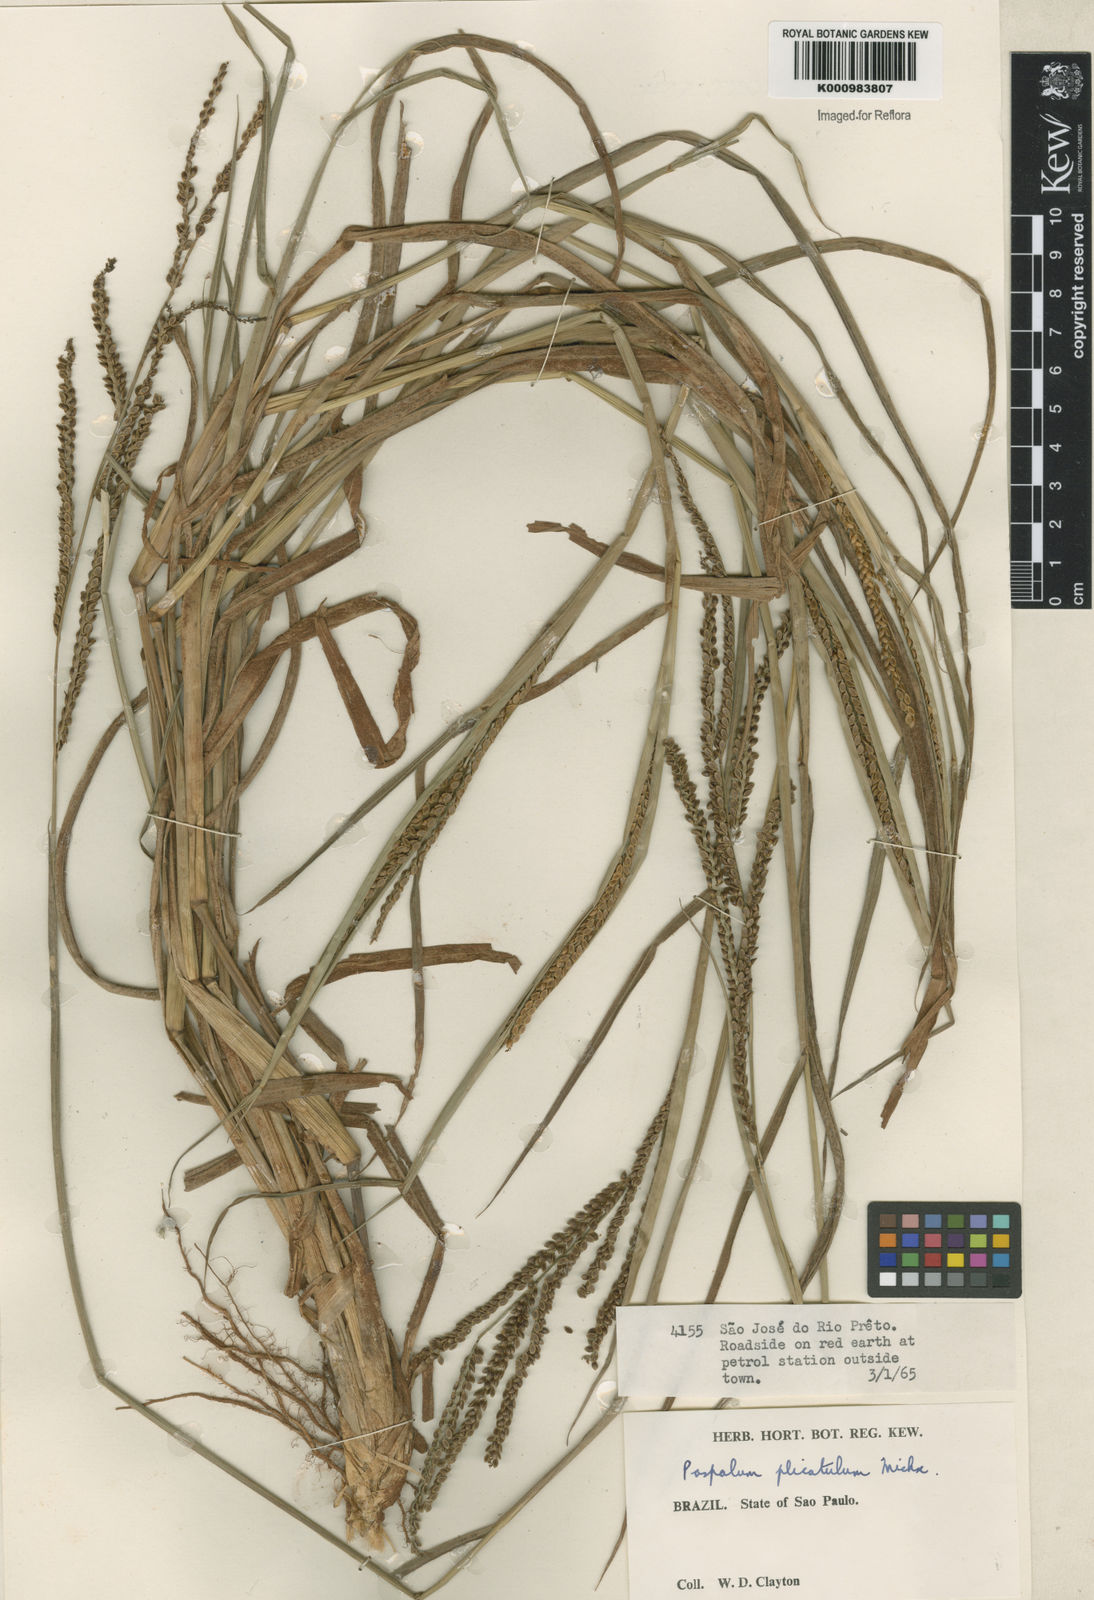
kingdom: Plantae
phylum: Tracheophyta
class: Liliopsida
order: Poales
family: Poaceae
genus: Paspalum
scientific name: Paspalum plicatulum
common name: Top paspalum
